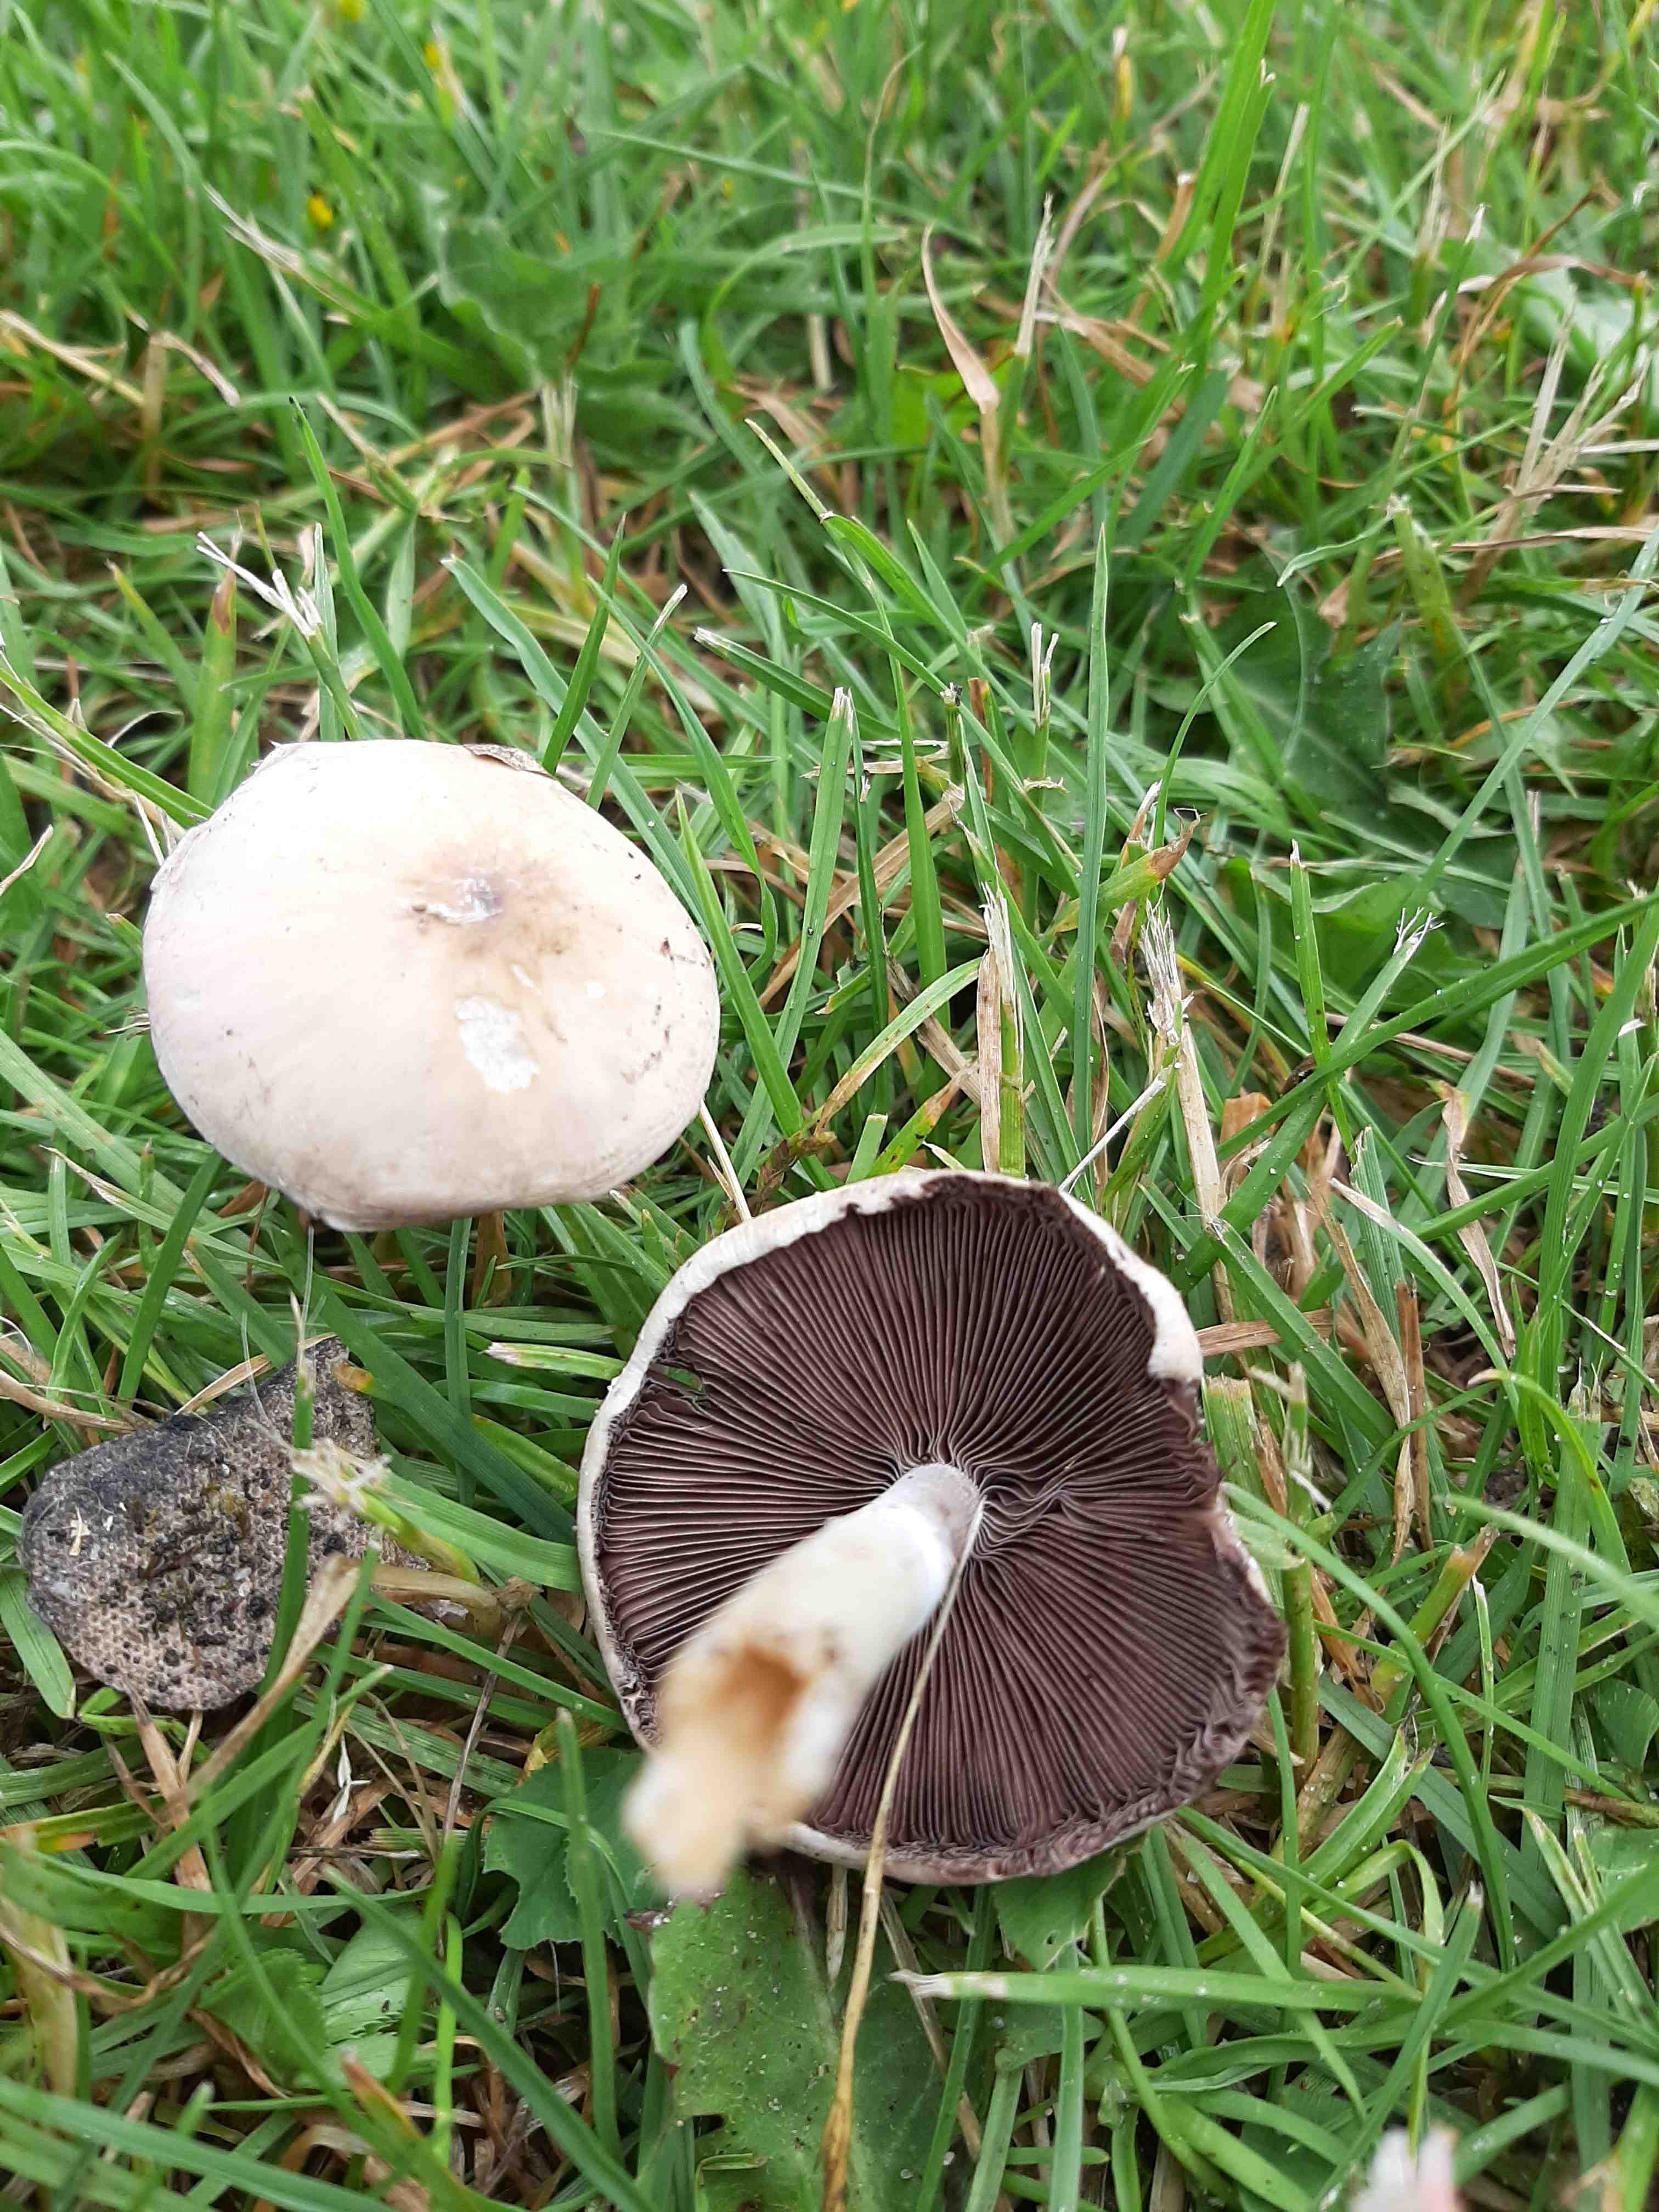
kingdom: Fungi
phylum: Basidiomycota
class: Agaricomycetes
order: Agaricales
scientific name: Agaricales
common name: champignonordenen
